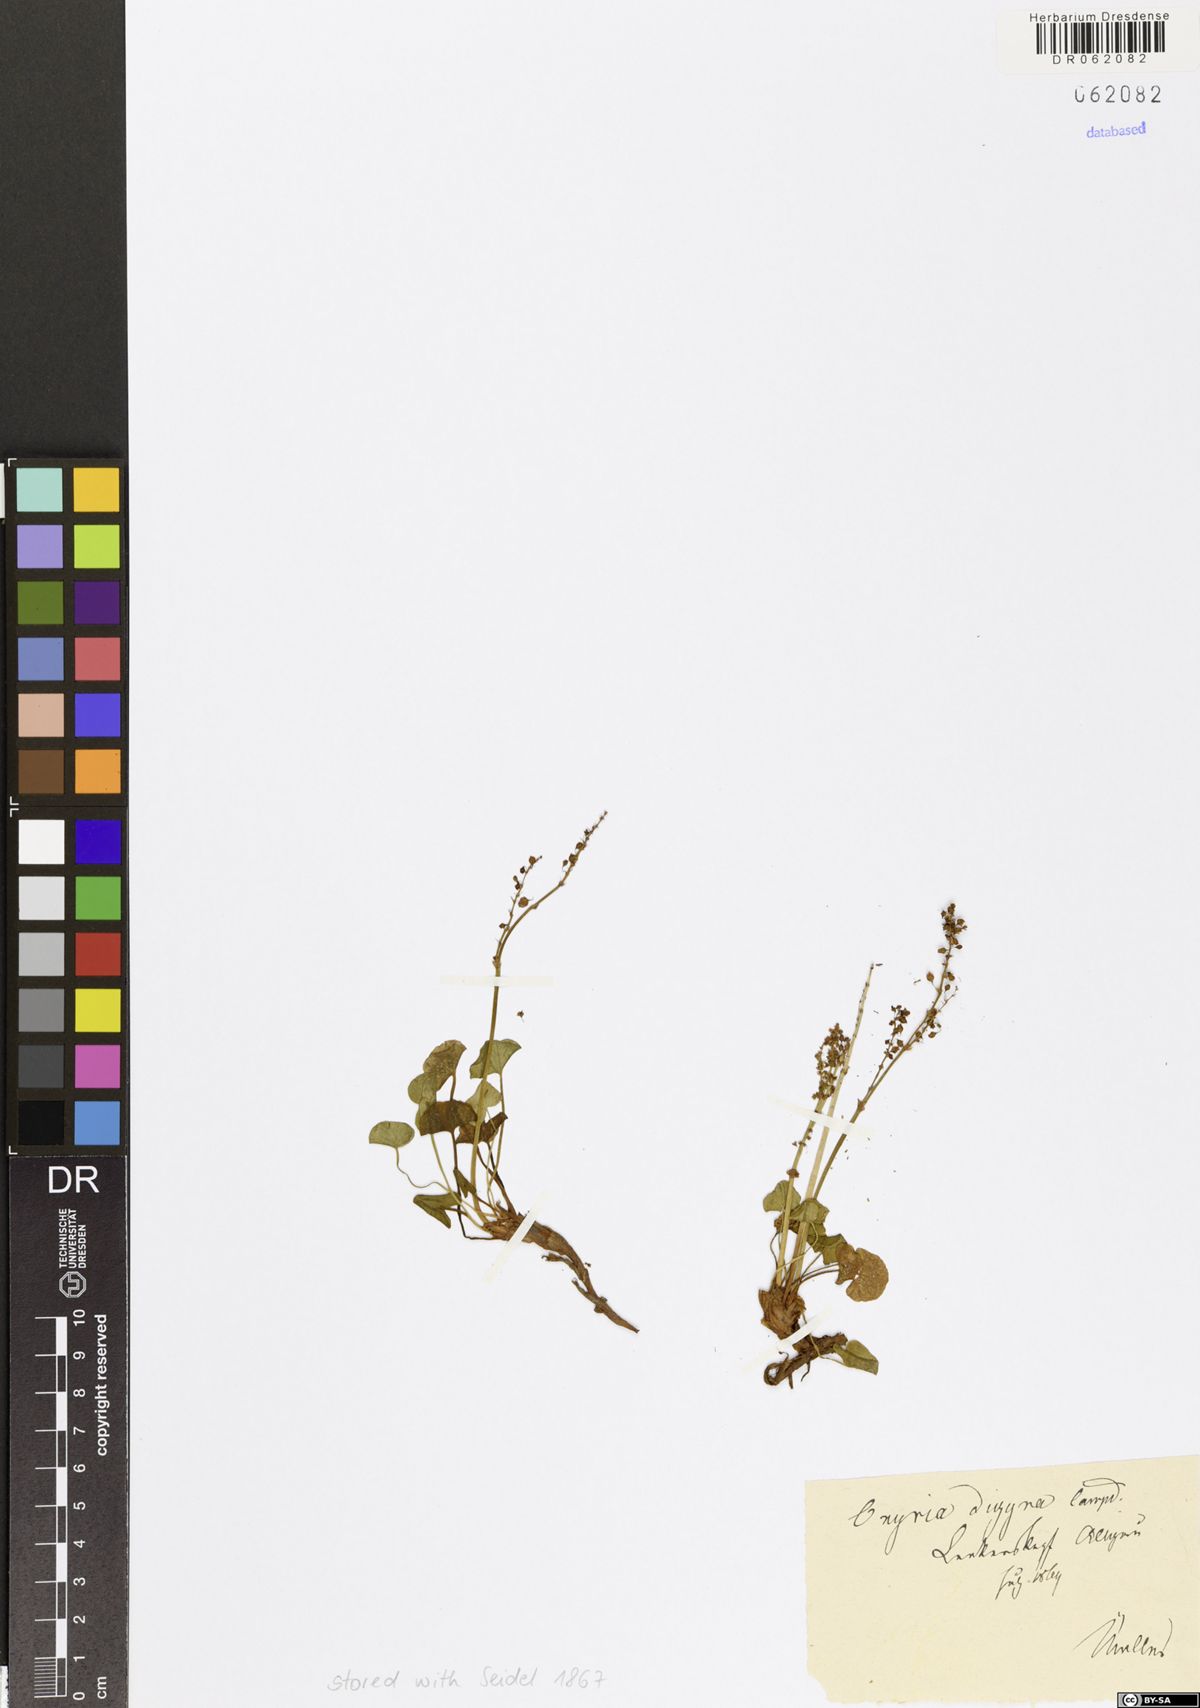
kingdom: Plantae
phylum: Tracheophyta
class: Magnoliopsida
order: Caryophyllales
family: Polygonaceae
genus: Oxyria
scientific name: Oxyria digyna
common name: Alpine mountain-sorrel
